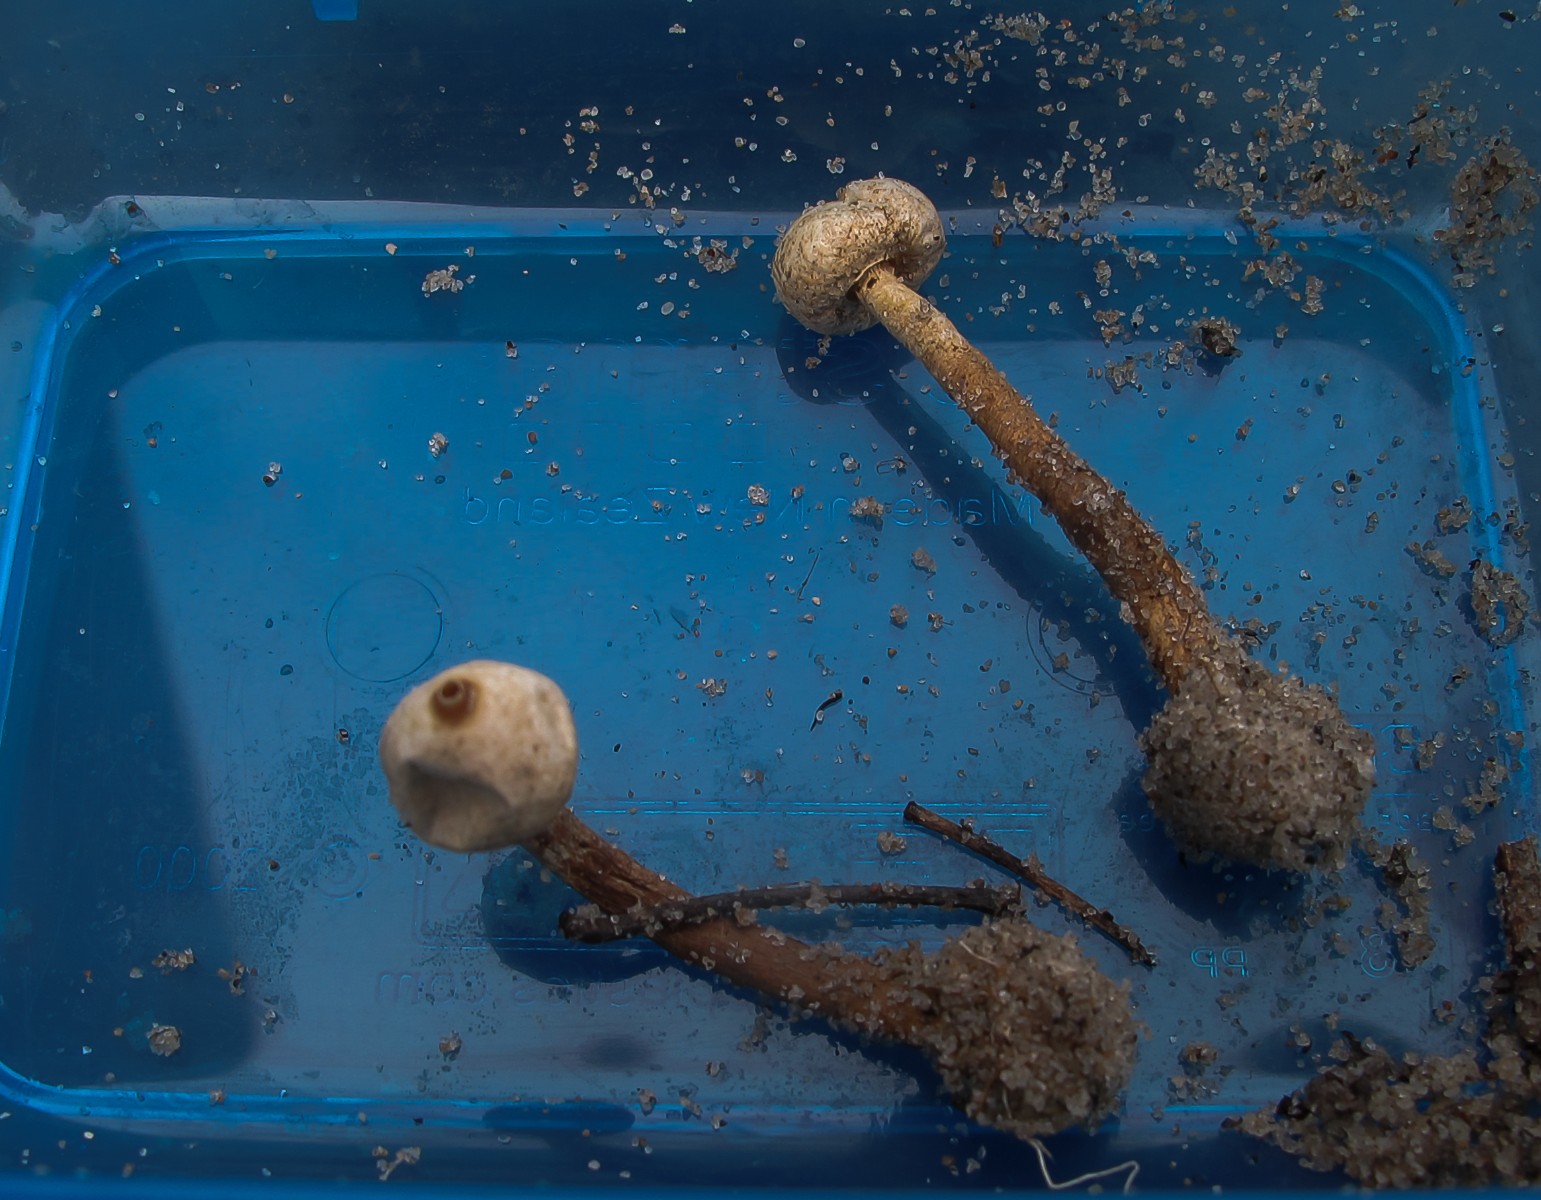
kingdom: Fungi
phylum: Basidiomycota
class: Agaricomycetes
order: Agaricales
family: Agaricaceae
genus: Tulostoma
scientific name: Tulostoma brumale
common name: vinter-stilkbovist
